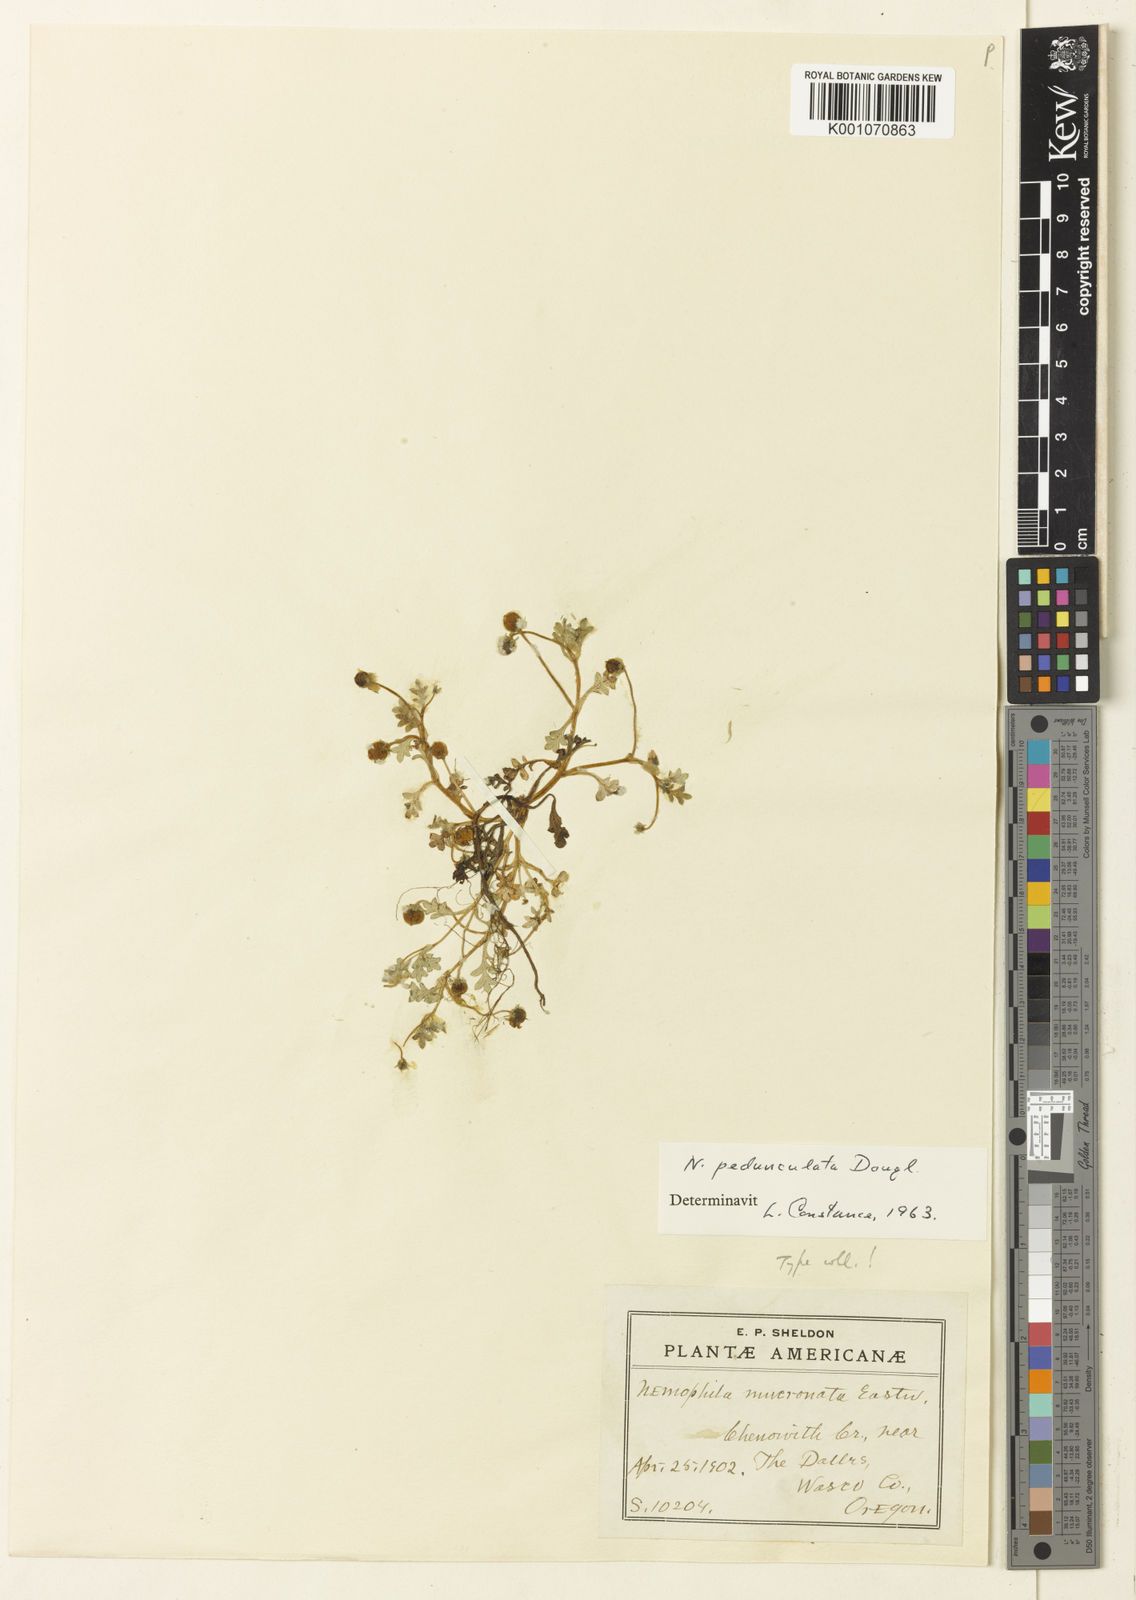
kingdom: Plantae
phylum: Tracheophyta
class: Magnoliopsida
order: Boraginales
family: Hydrophyllaceae
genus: Nemophila
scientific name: Nemophila
